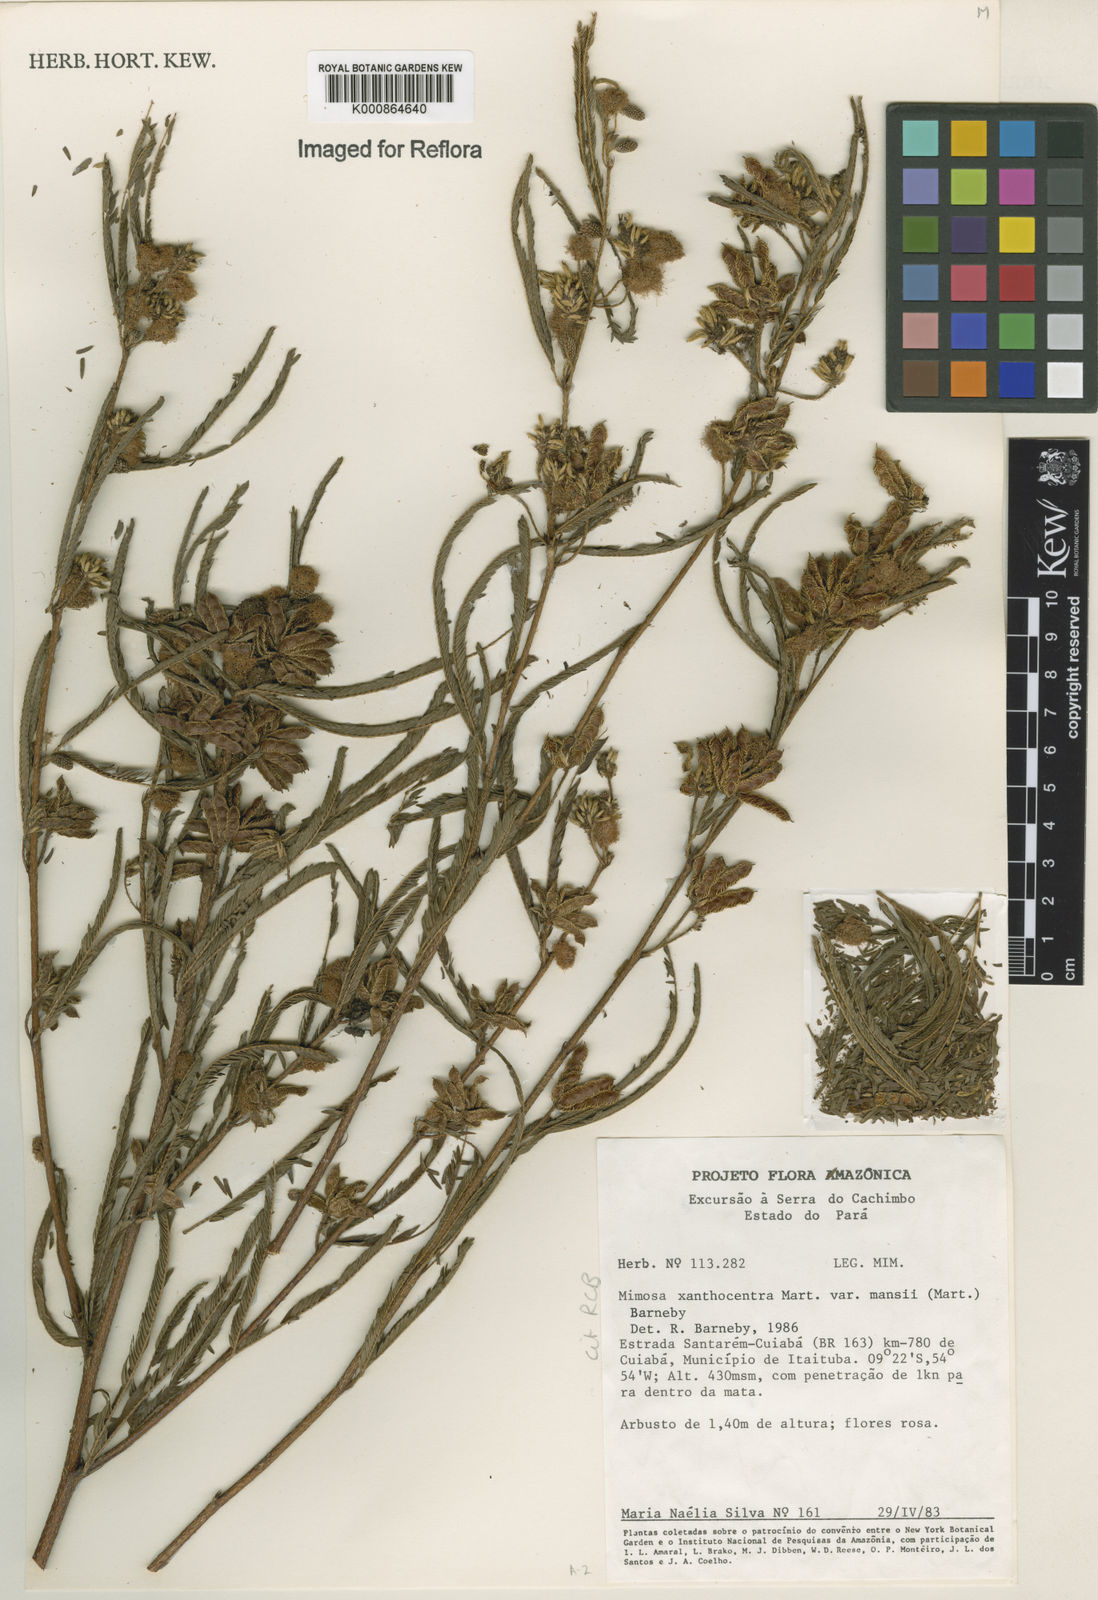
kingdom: Plantae
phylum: Tracheophyta
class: Magnoliopsida
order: Fabales
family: Fabaceae
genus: Mimosa
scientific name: Mimosa xanthocentra
